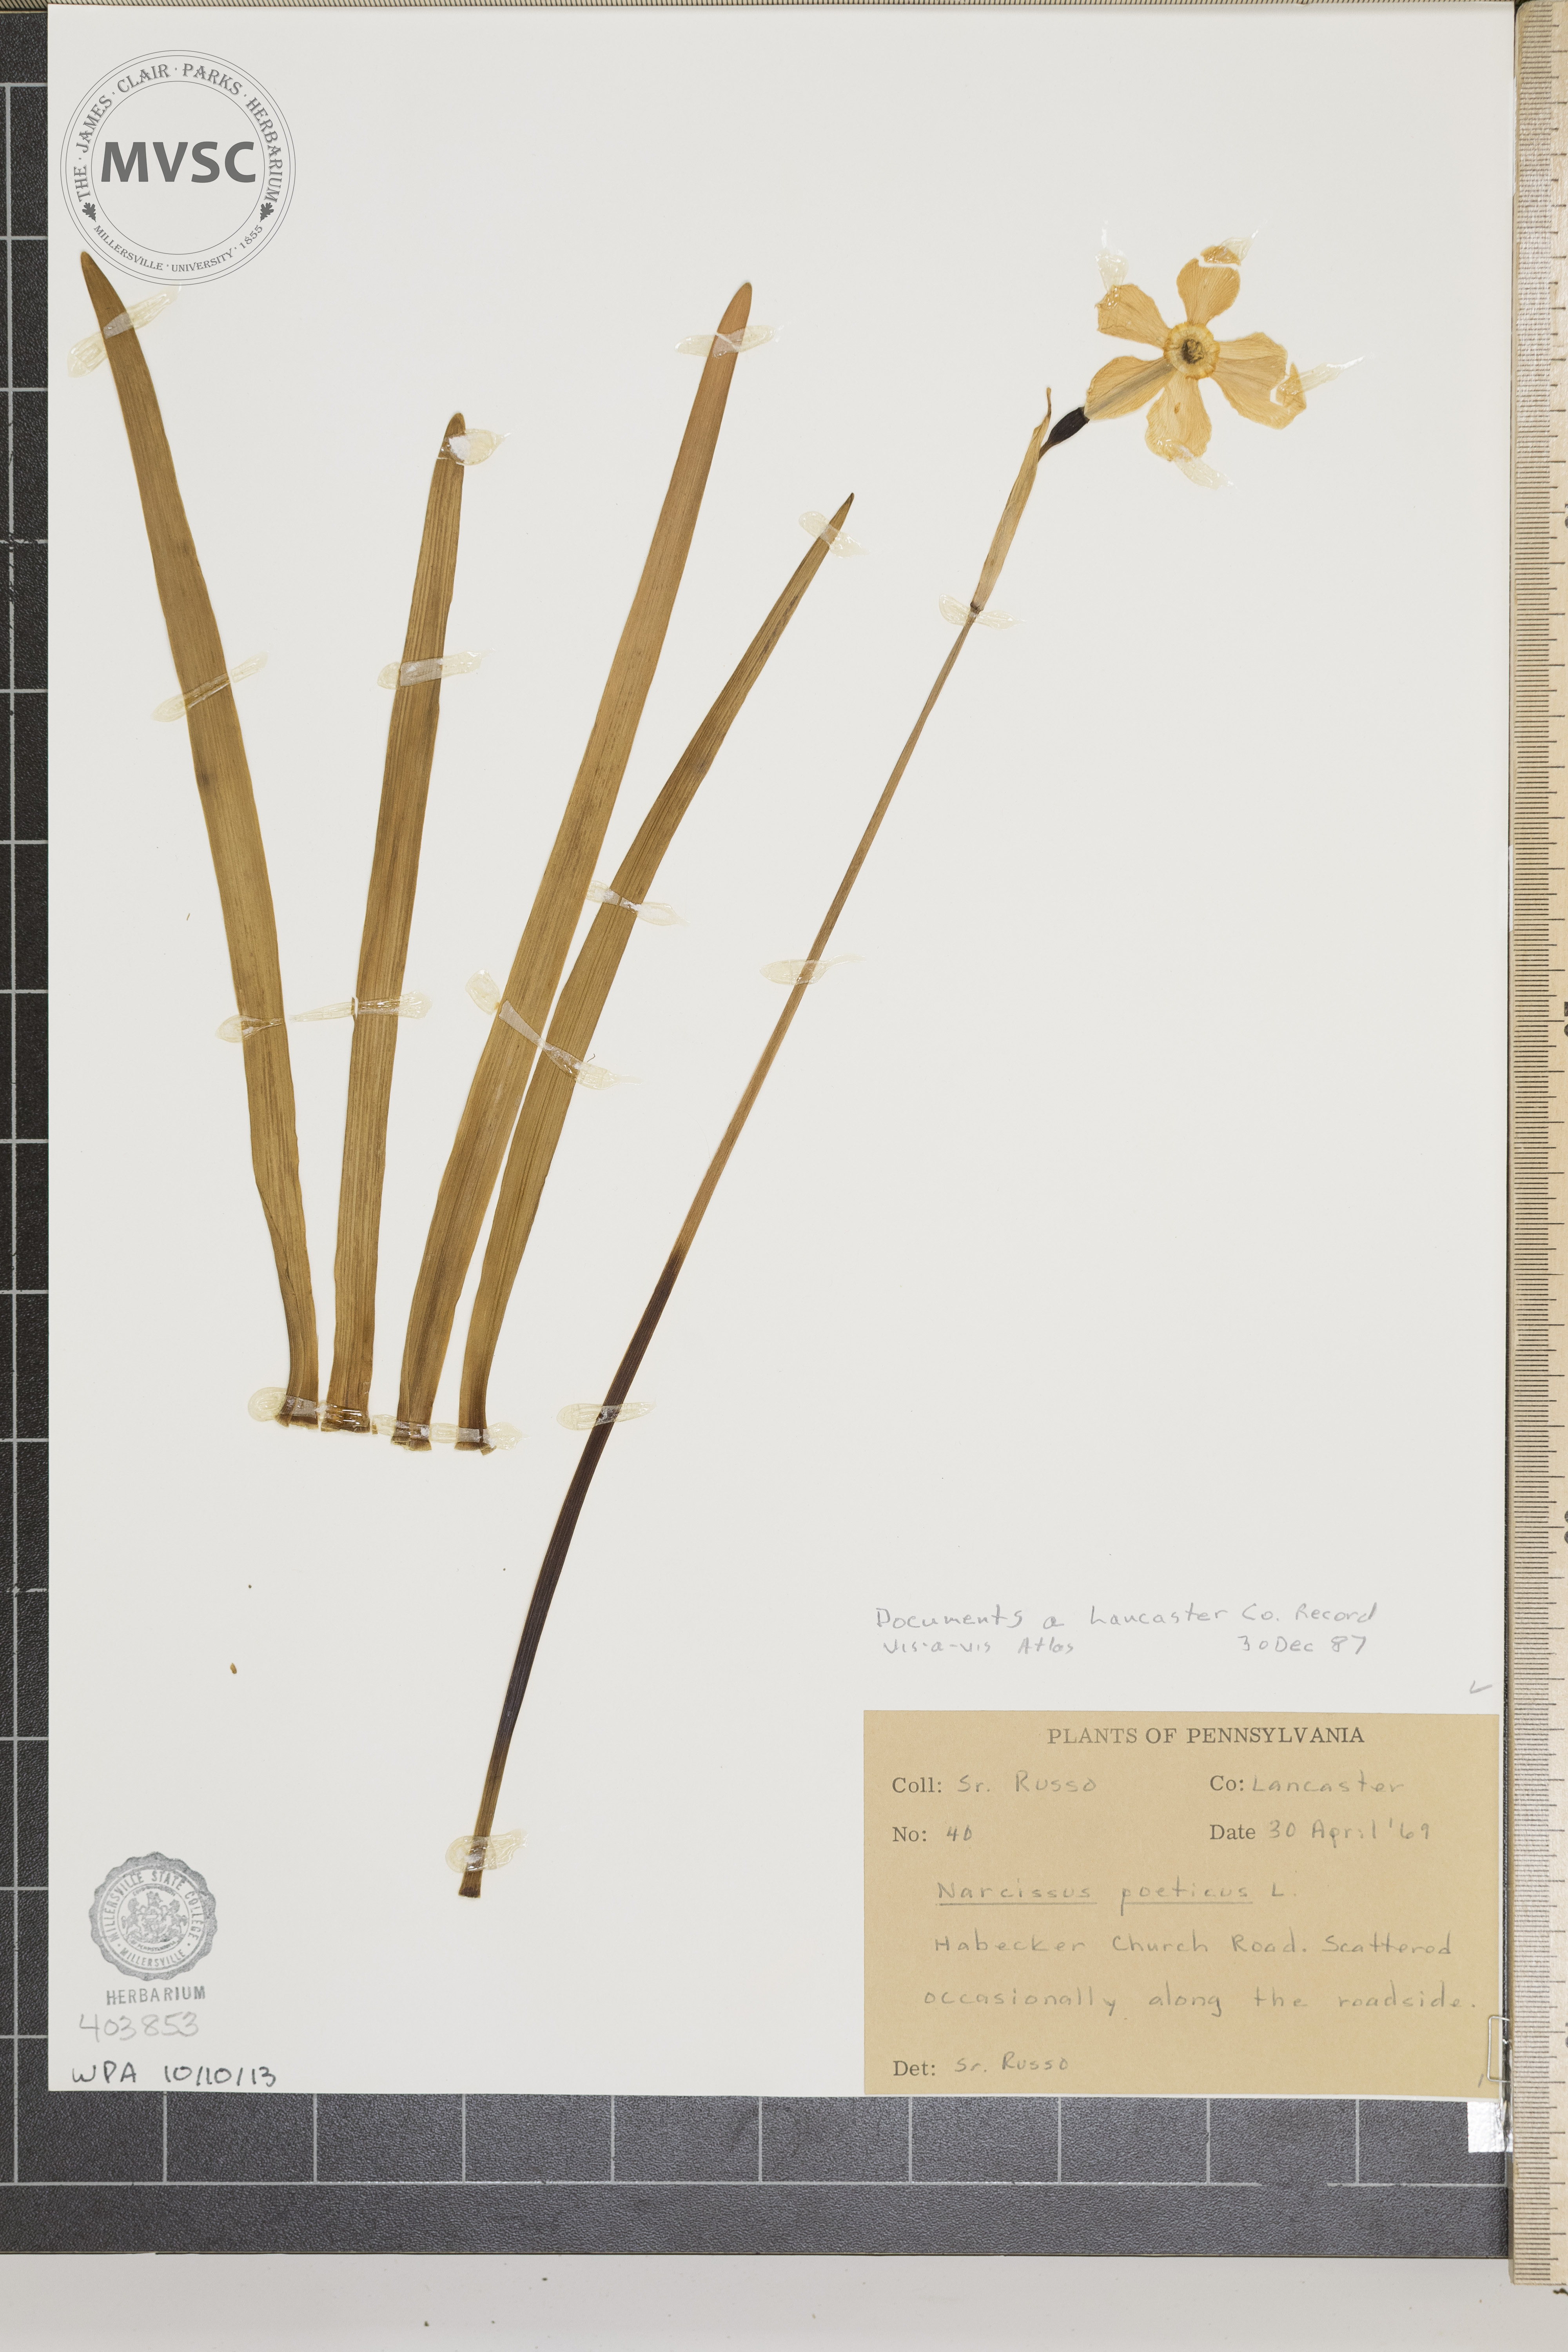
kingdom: Plantae
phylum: Tracheophyta
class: Liliopsida
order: Asparagales
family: Amaryllidaceae
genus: Narcissus
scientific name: Narcissus poeticus
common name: Poet's Narcissus
